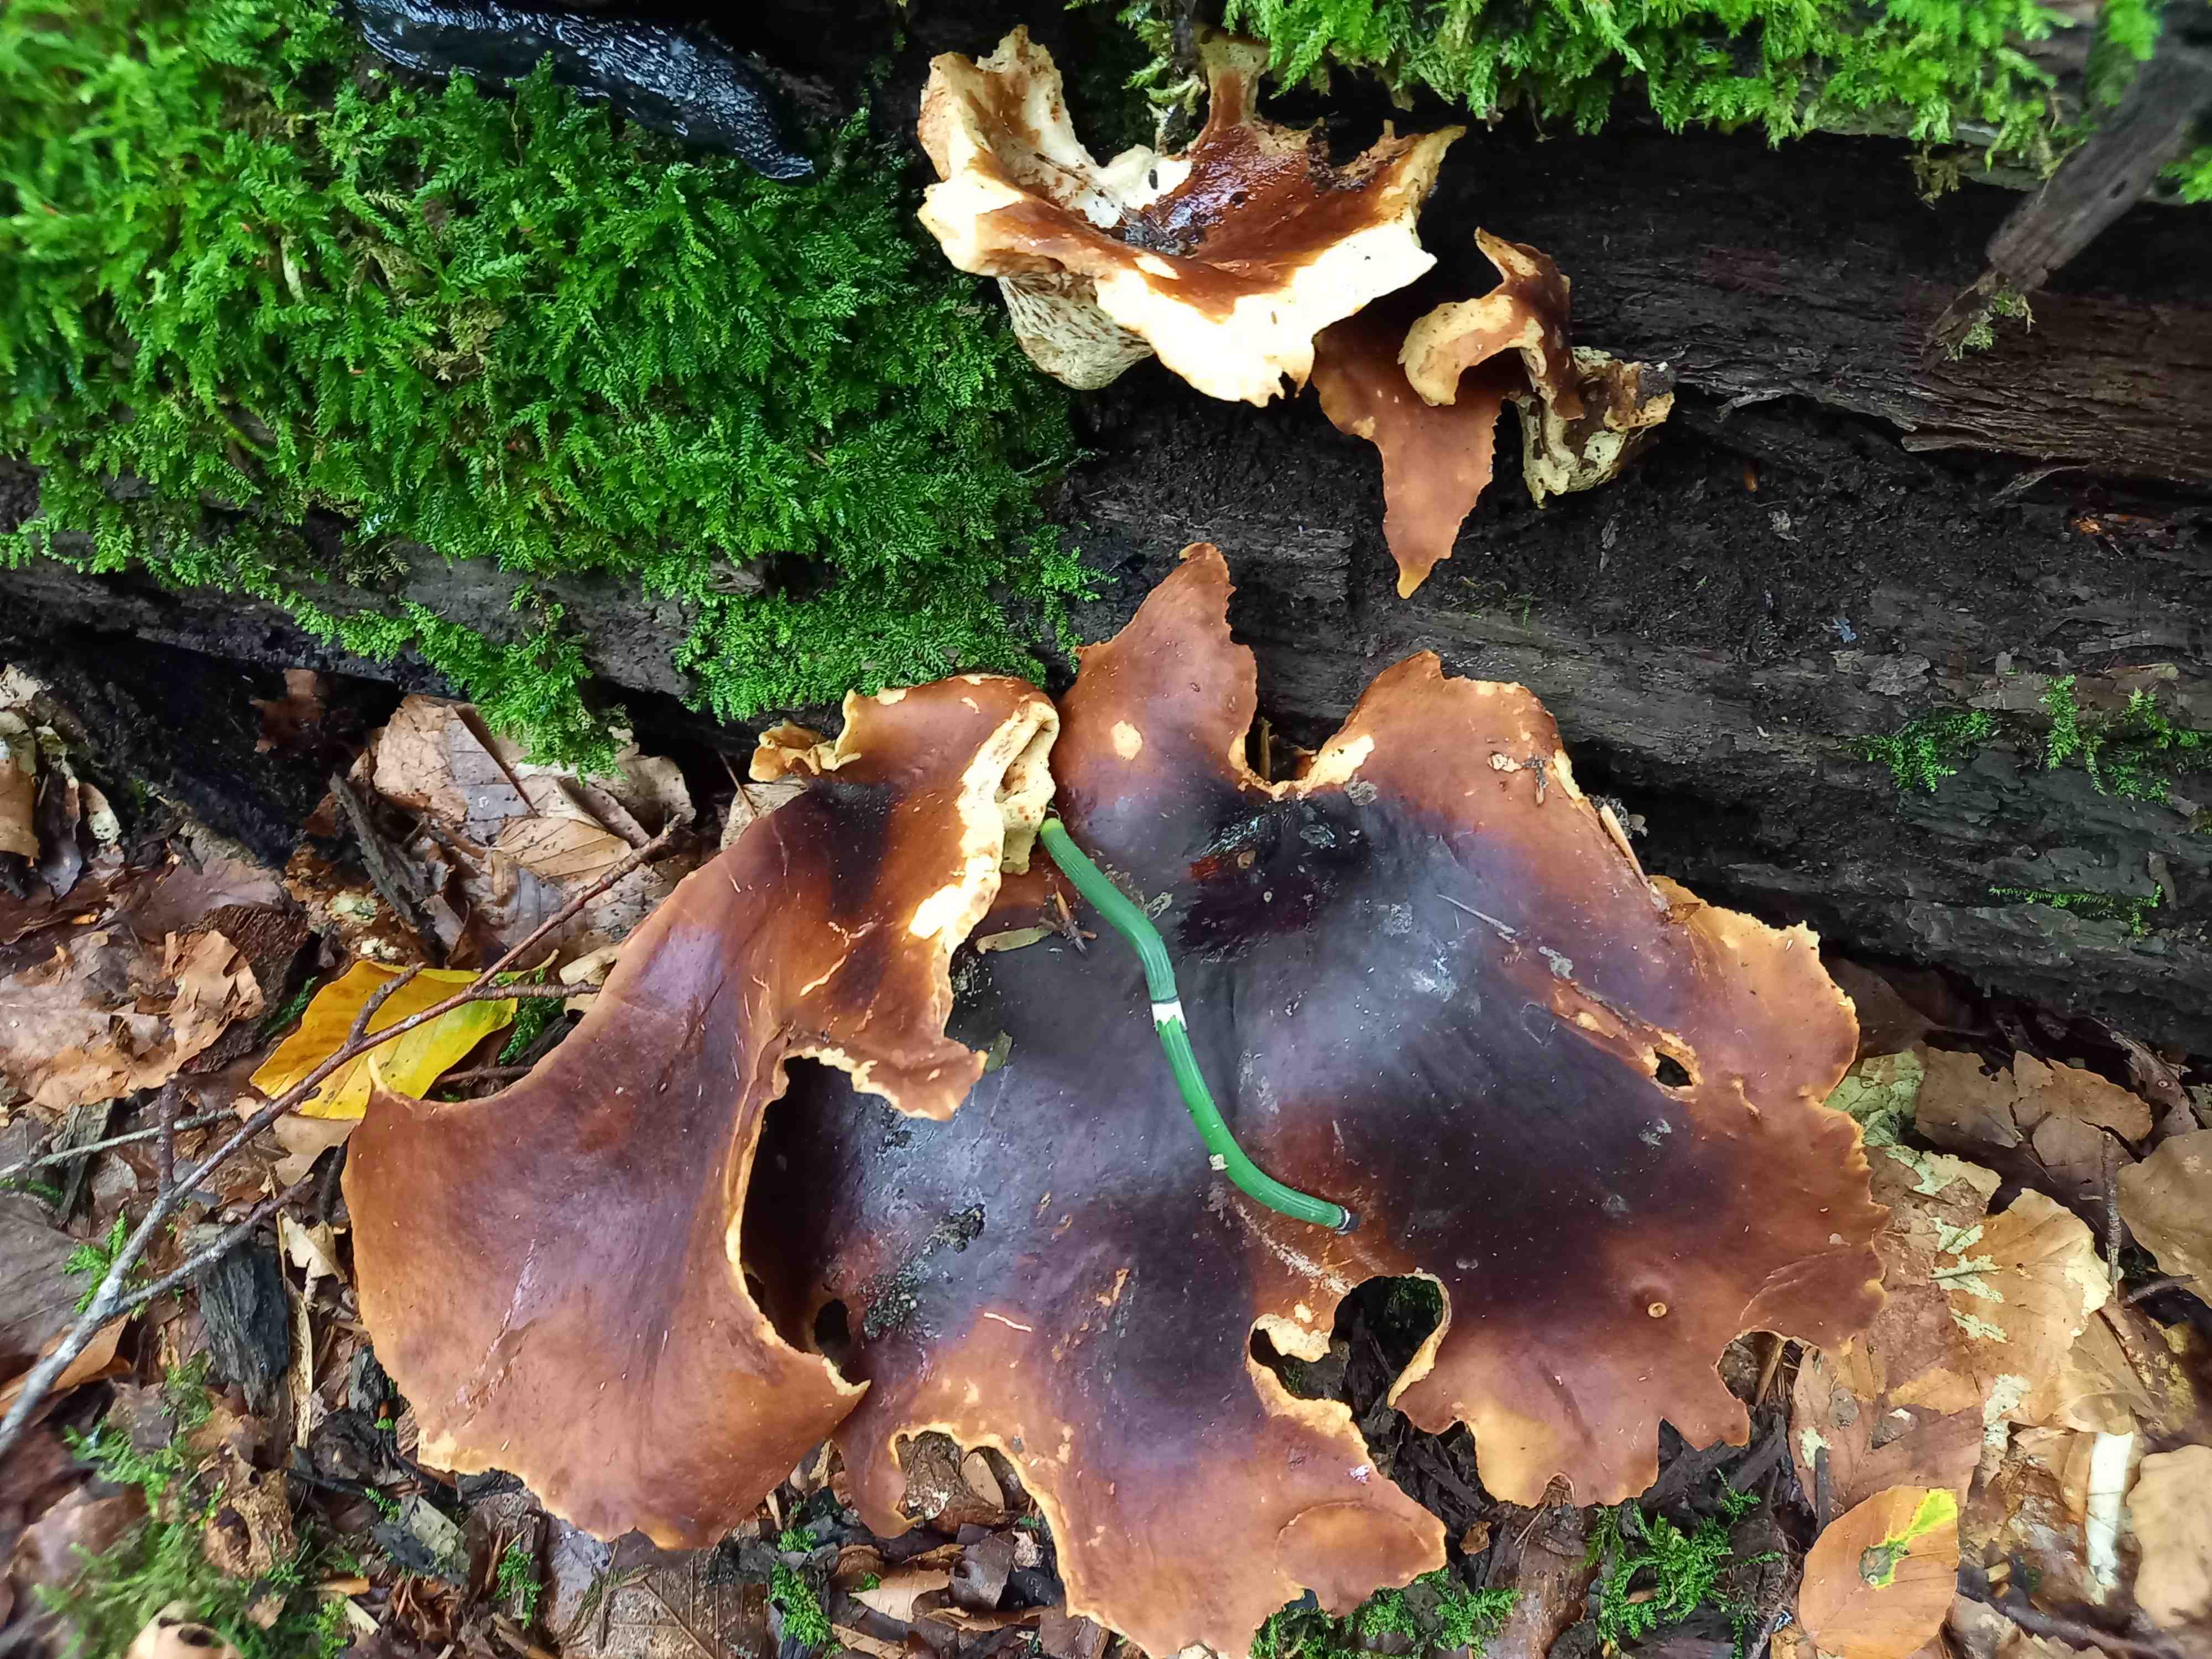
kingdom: Fungi
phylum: Basidiomycota
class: Agaricomycetes
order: Polyporales
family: Polyporaceae
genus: Picipes
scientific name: Picipes badius
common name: kastaniebrun stilkporesvamp
